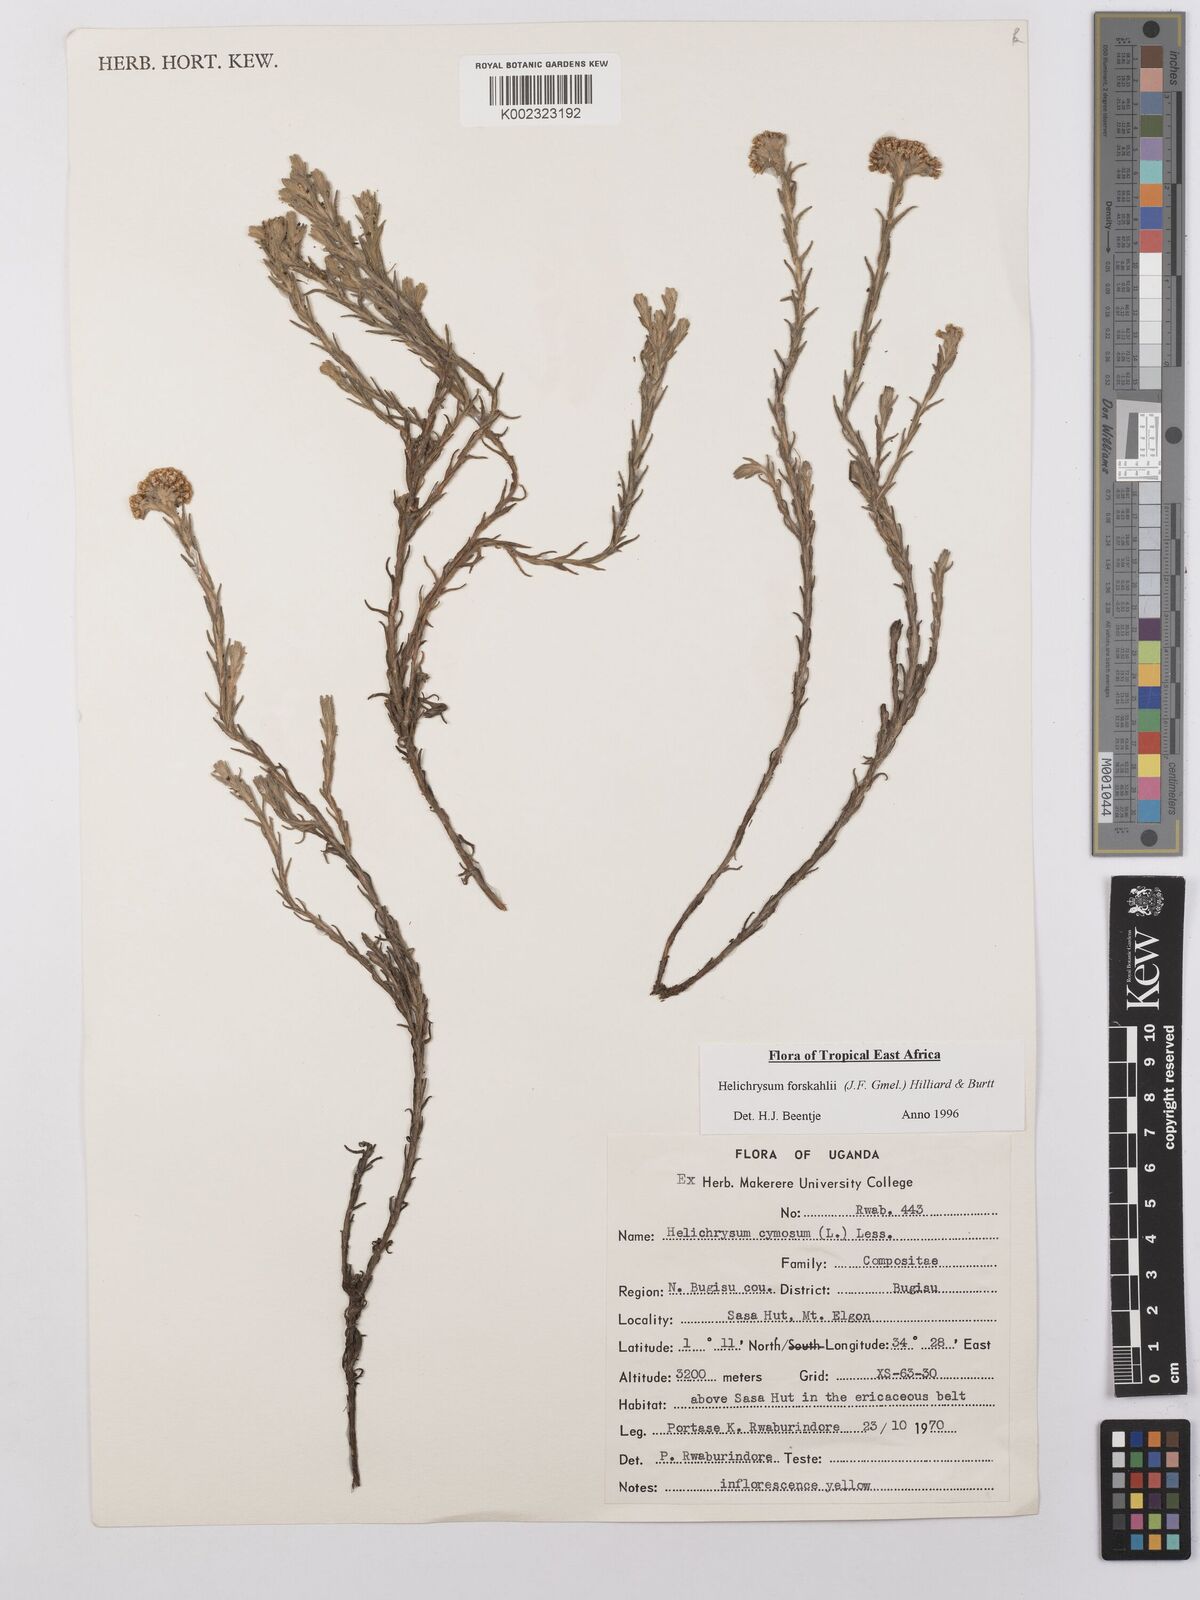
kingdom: Plantae
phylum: Tracheophyta
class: Magnoliopsida
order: Asterales
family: Asteraceae
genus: Helichrysum
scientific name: Helichrysum forskahlii
